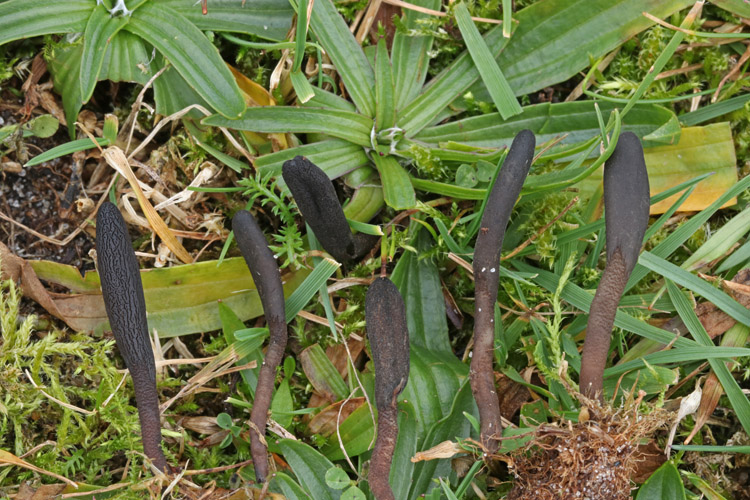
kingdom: Fungi
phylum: Ascomycota
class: Geoglossomycetes
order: Geoglossales
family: Geoglossaceae
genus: Hemileucoglossum
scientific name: Hemileucoglossum elongatum
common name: småsporet jordtunge
